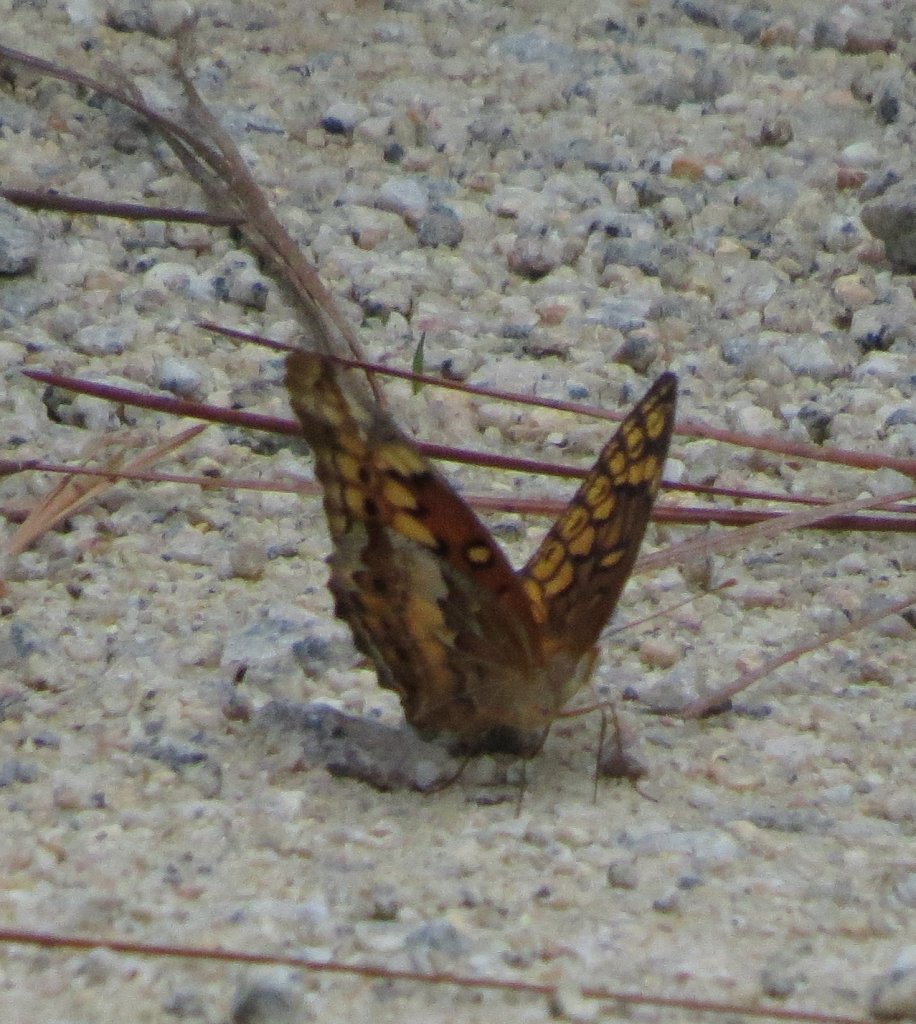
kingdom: Animalia
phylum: Arthropoda
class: Insecta
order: Lepidoptera
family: Nymphalidae
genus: Euptoieta
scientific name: Euptoieta claudia
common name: Variegated Fritillary
